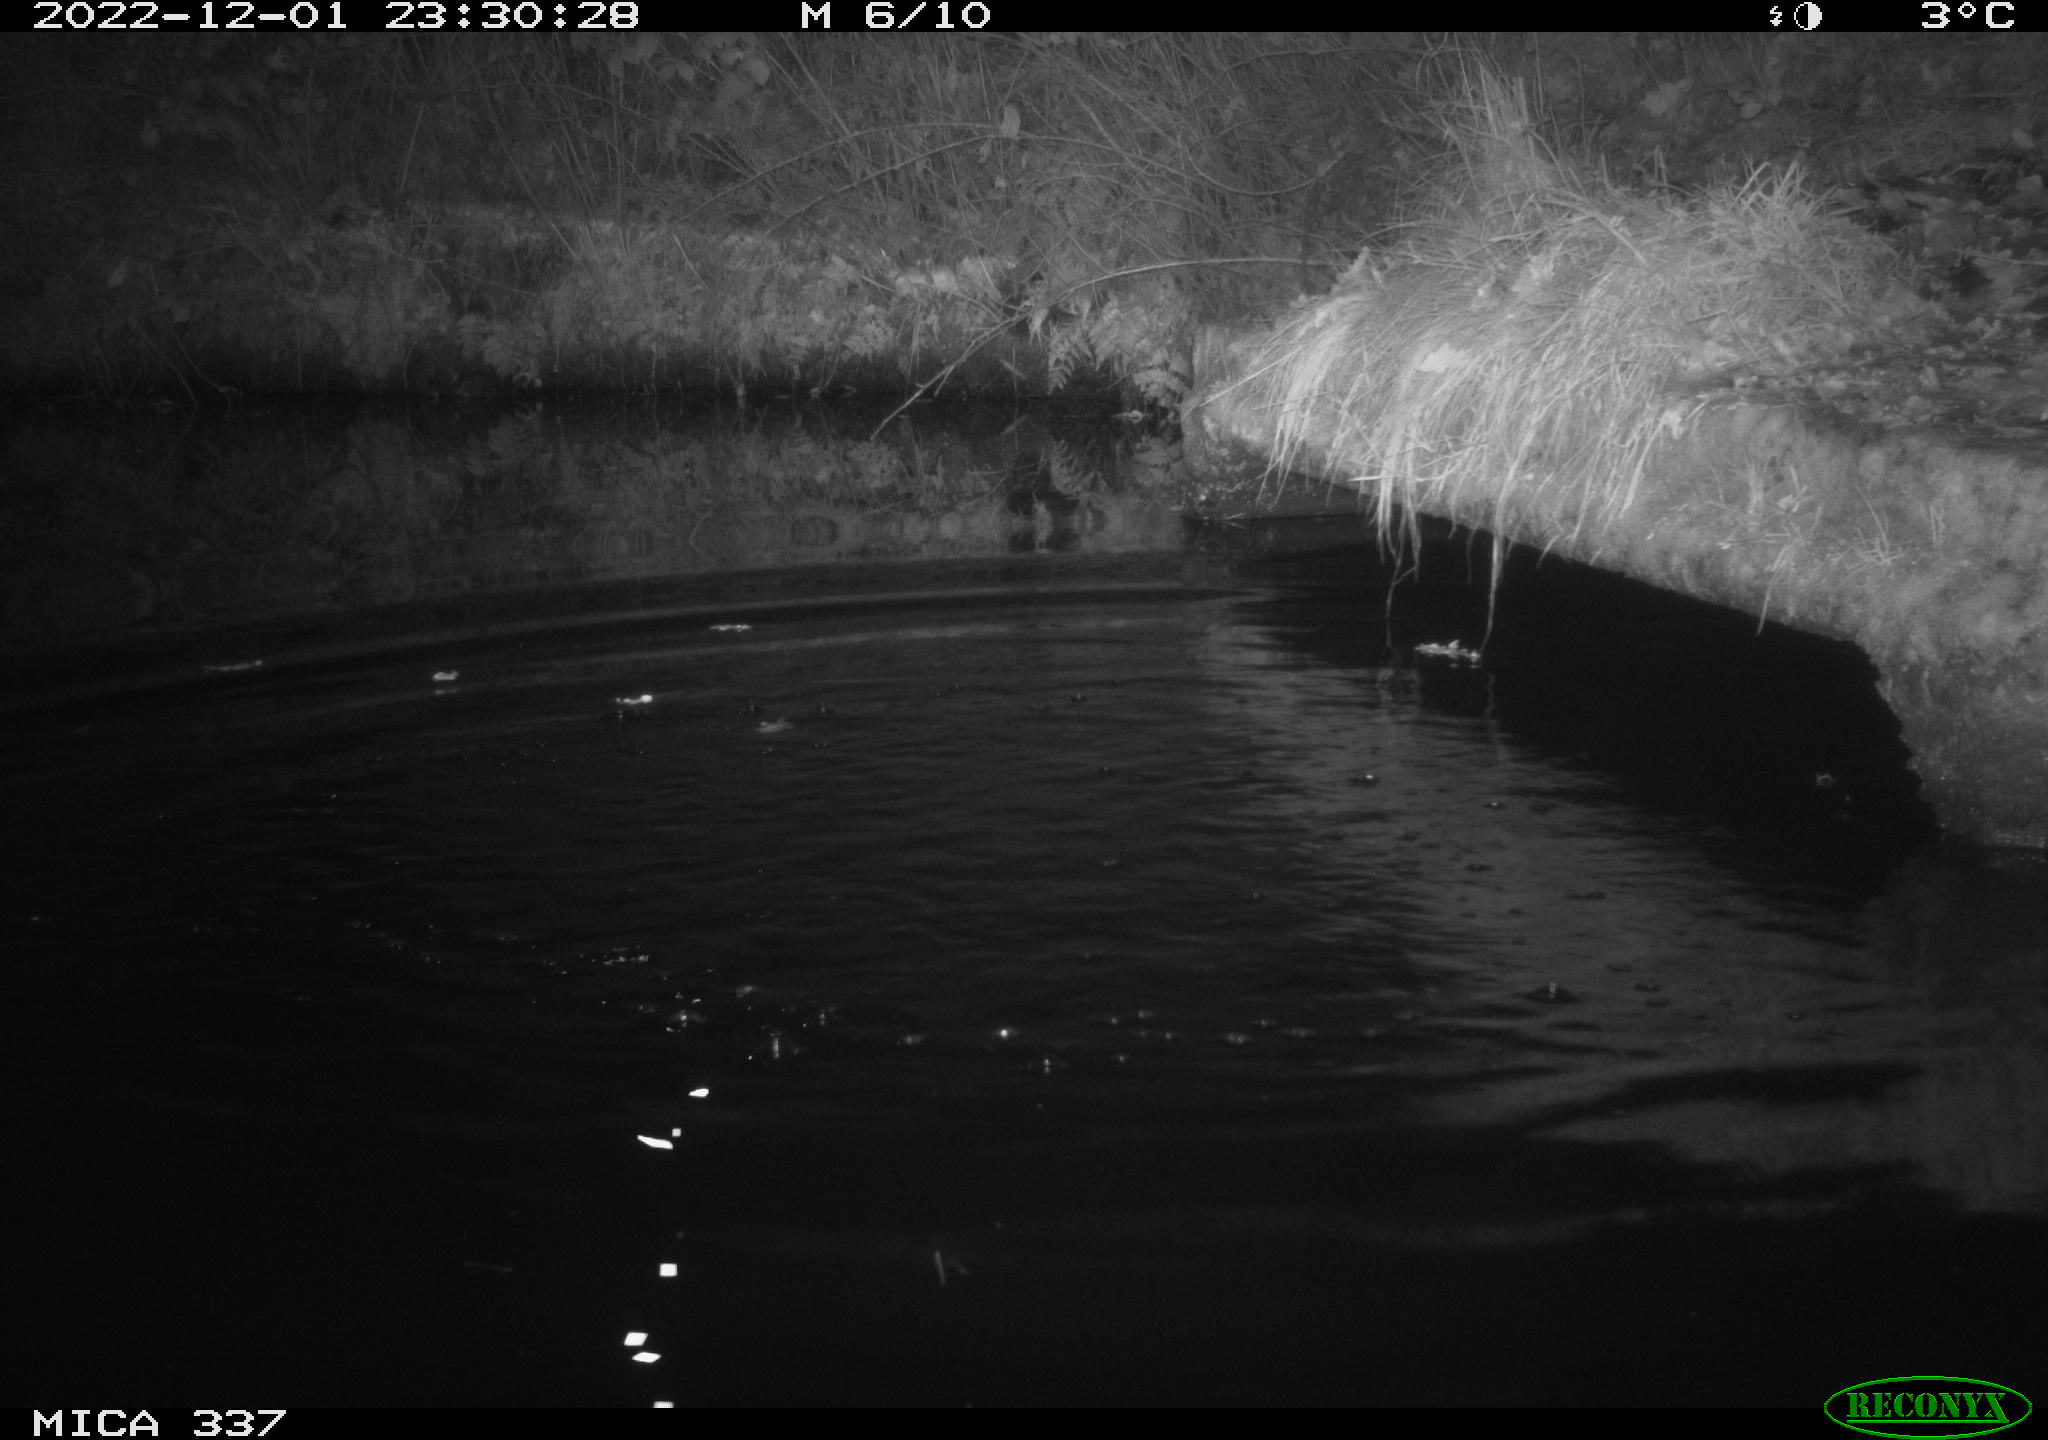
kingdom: Animalia
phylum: Chordata
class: Aves
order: Anseriformes
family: Anatidae
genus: Anas
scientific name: Anas
